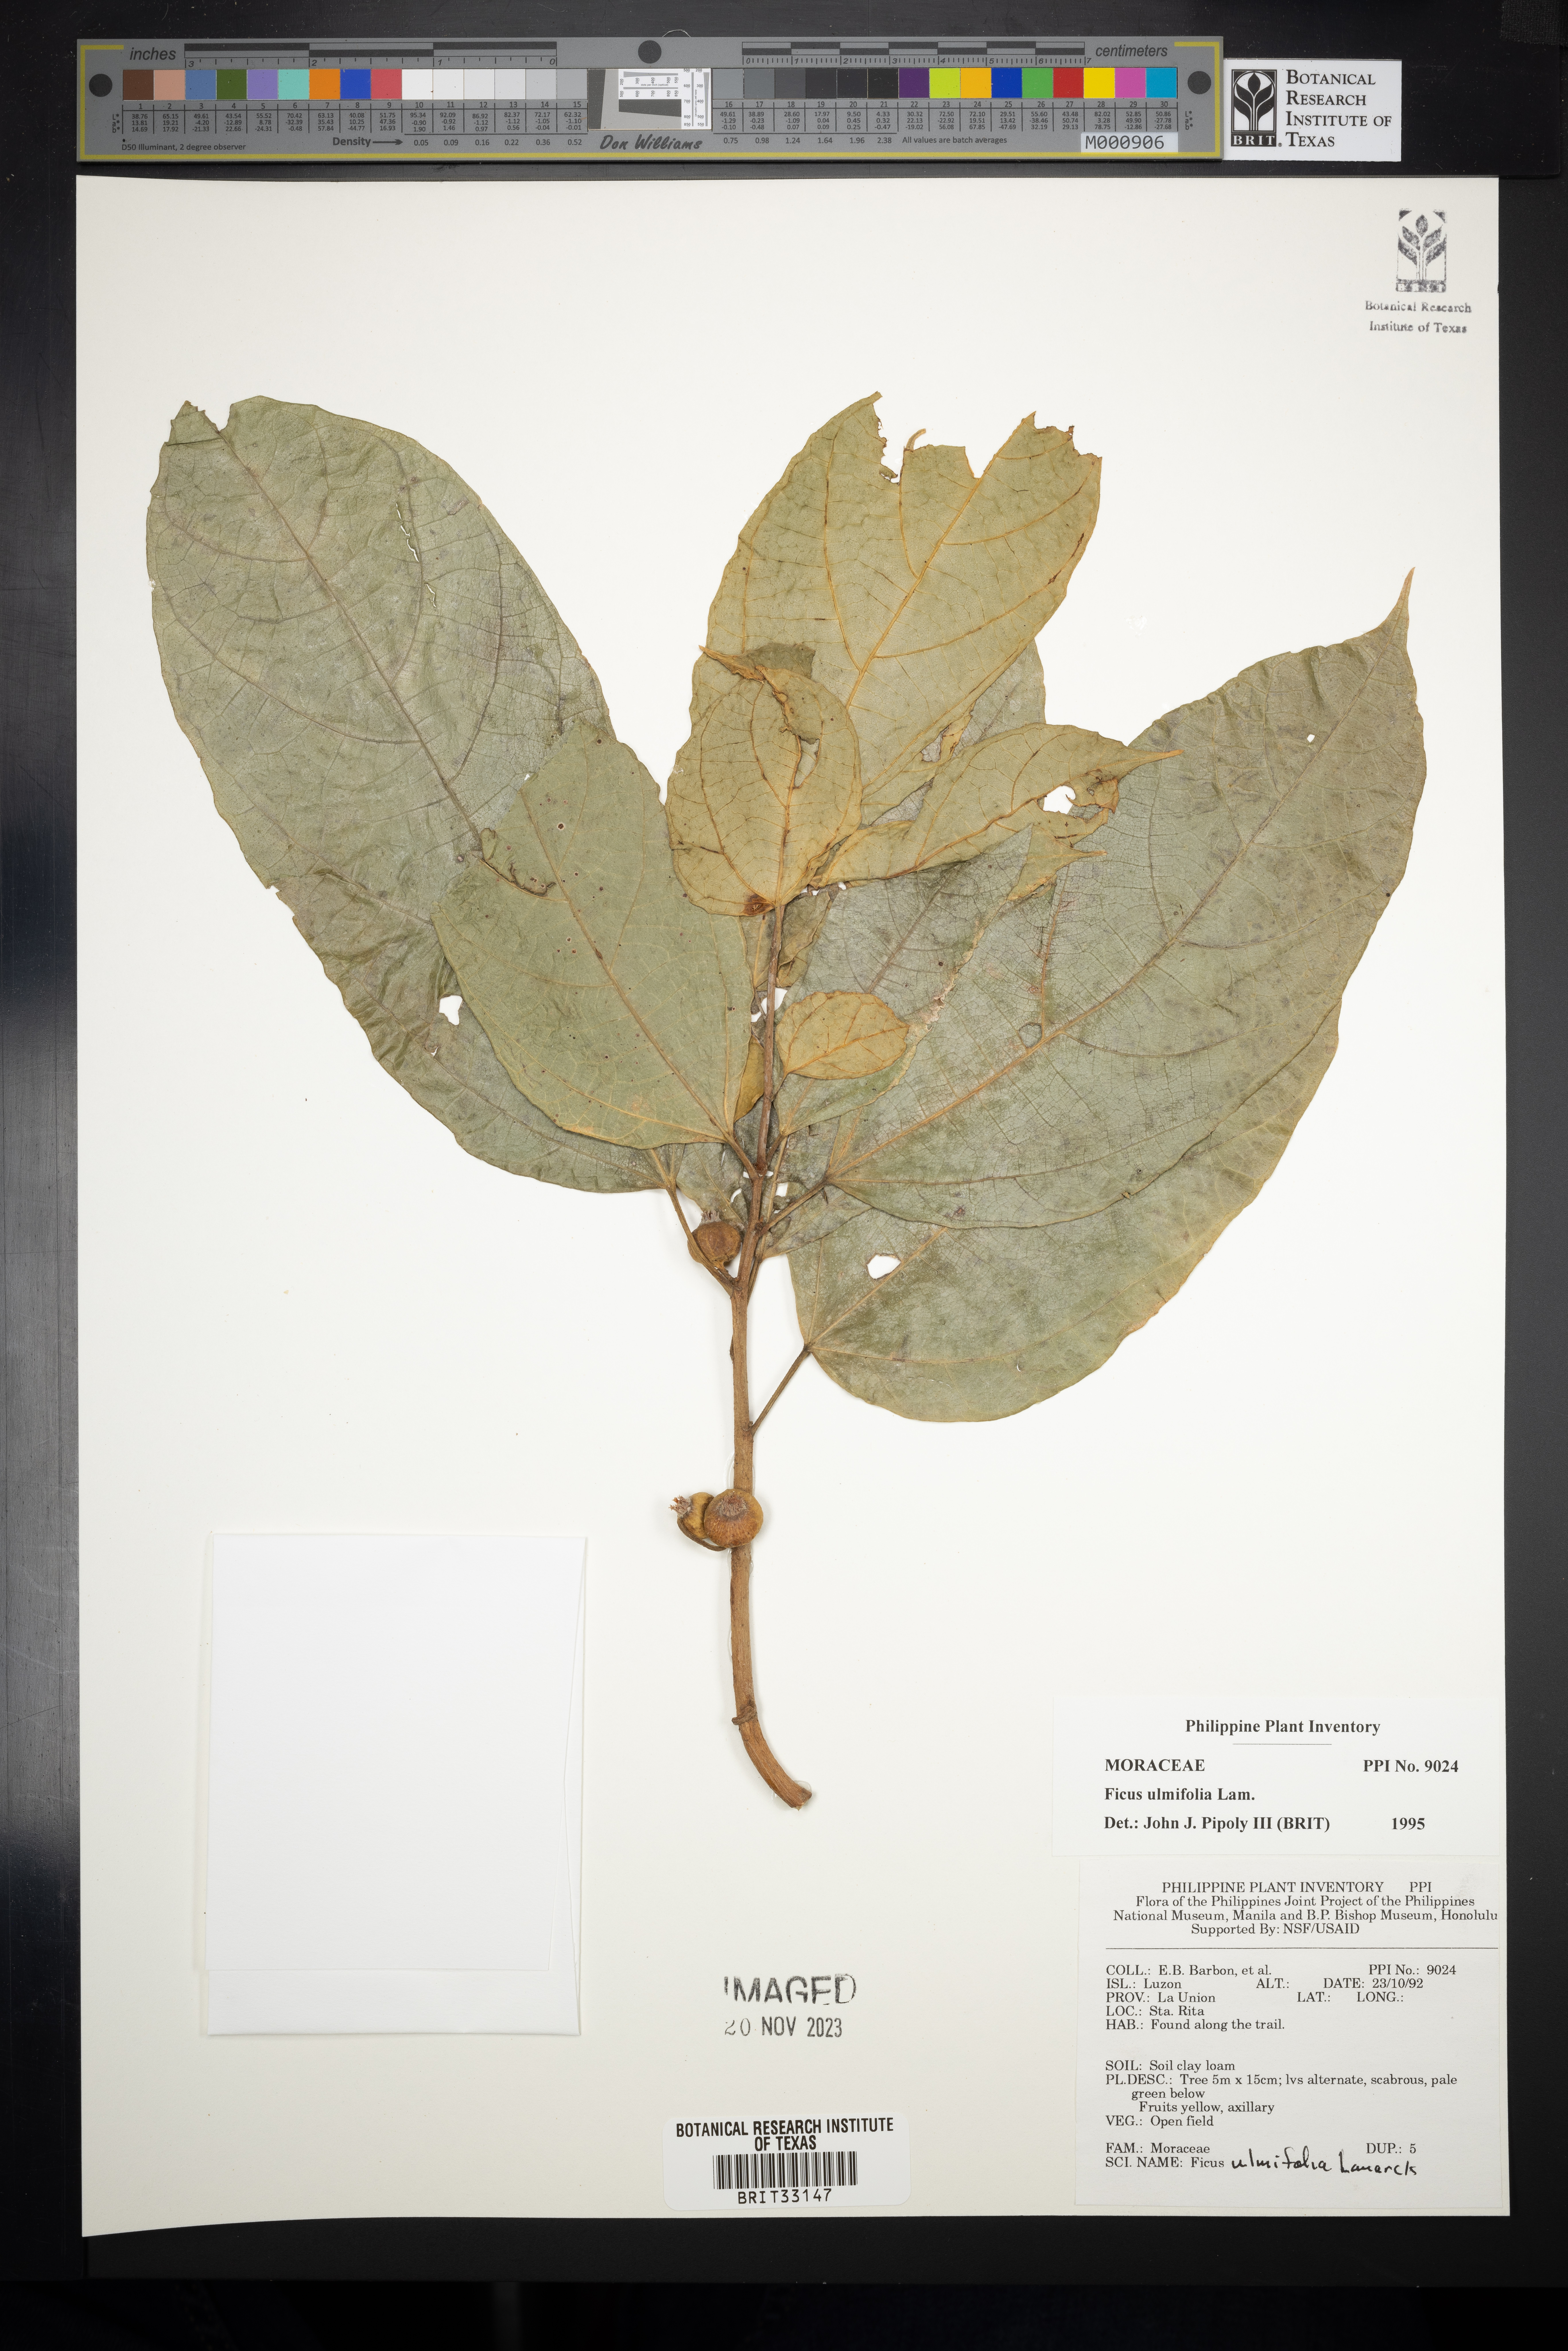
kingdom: Plantae
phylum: Tracheophyta
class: Magnoliopsida
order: Rosales
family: Moraceae
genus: Ficus
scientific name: Ficus ulmifolia
